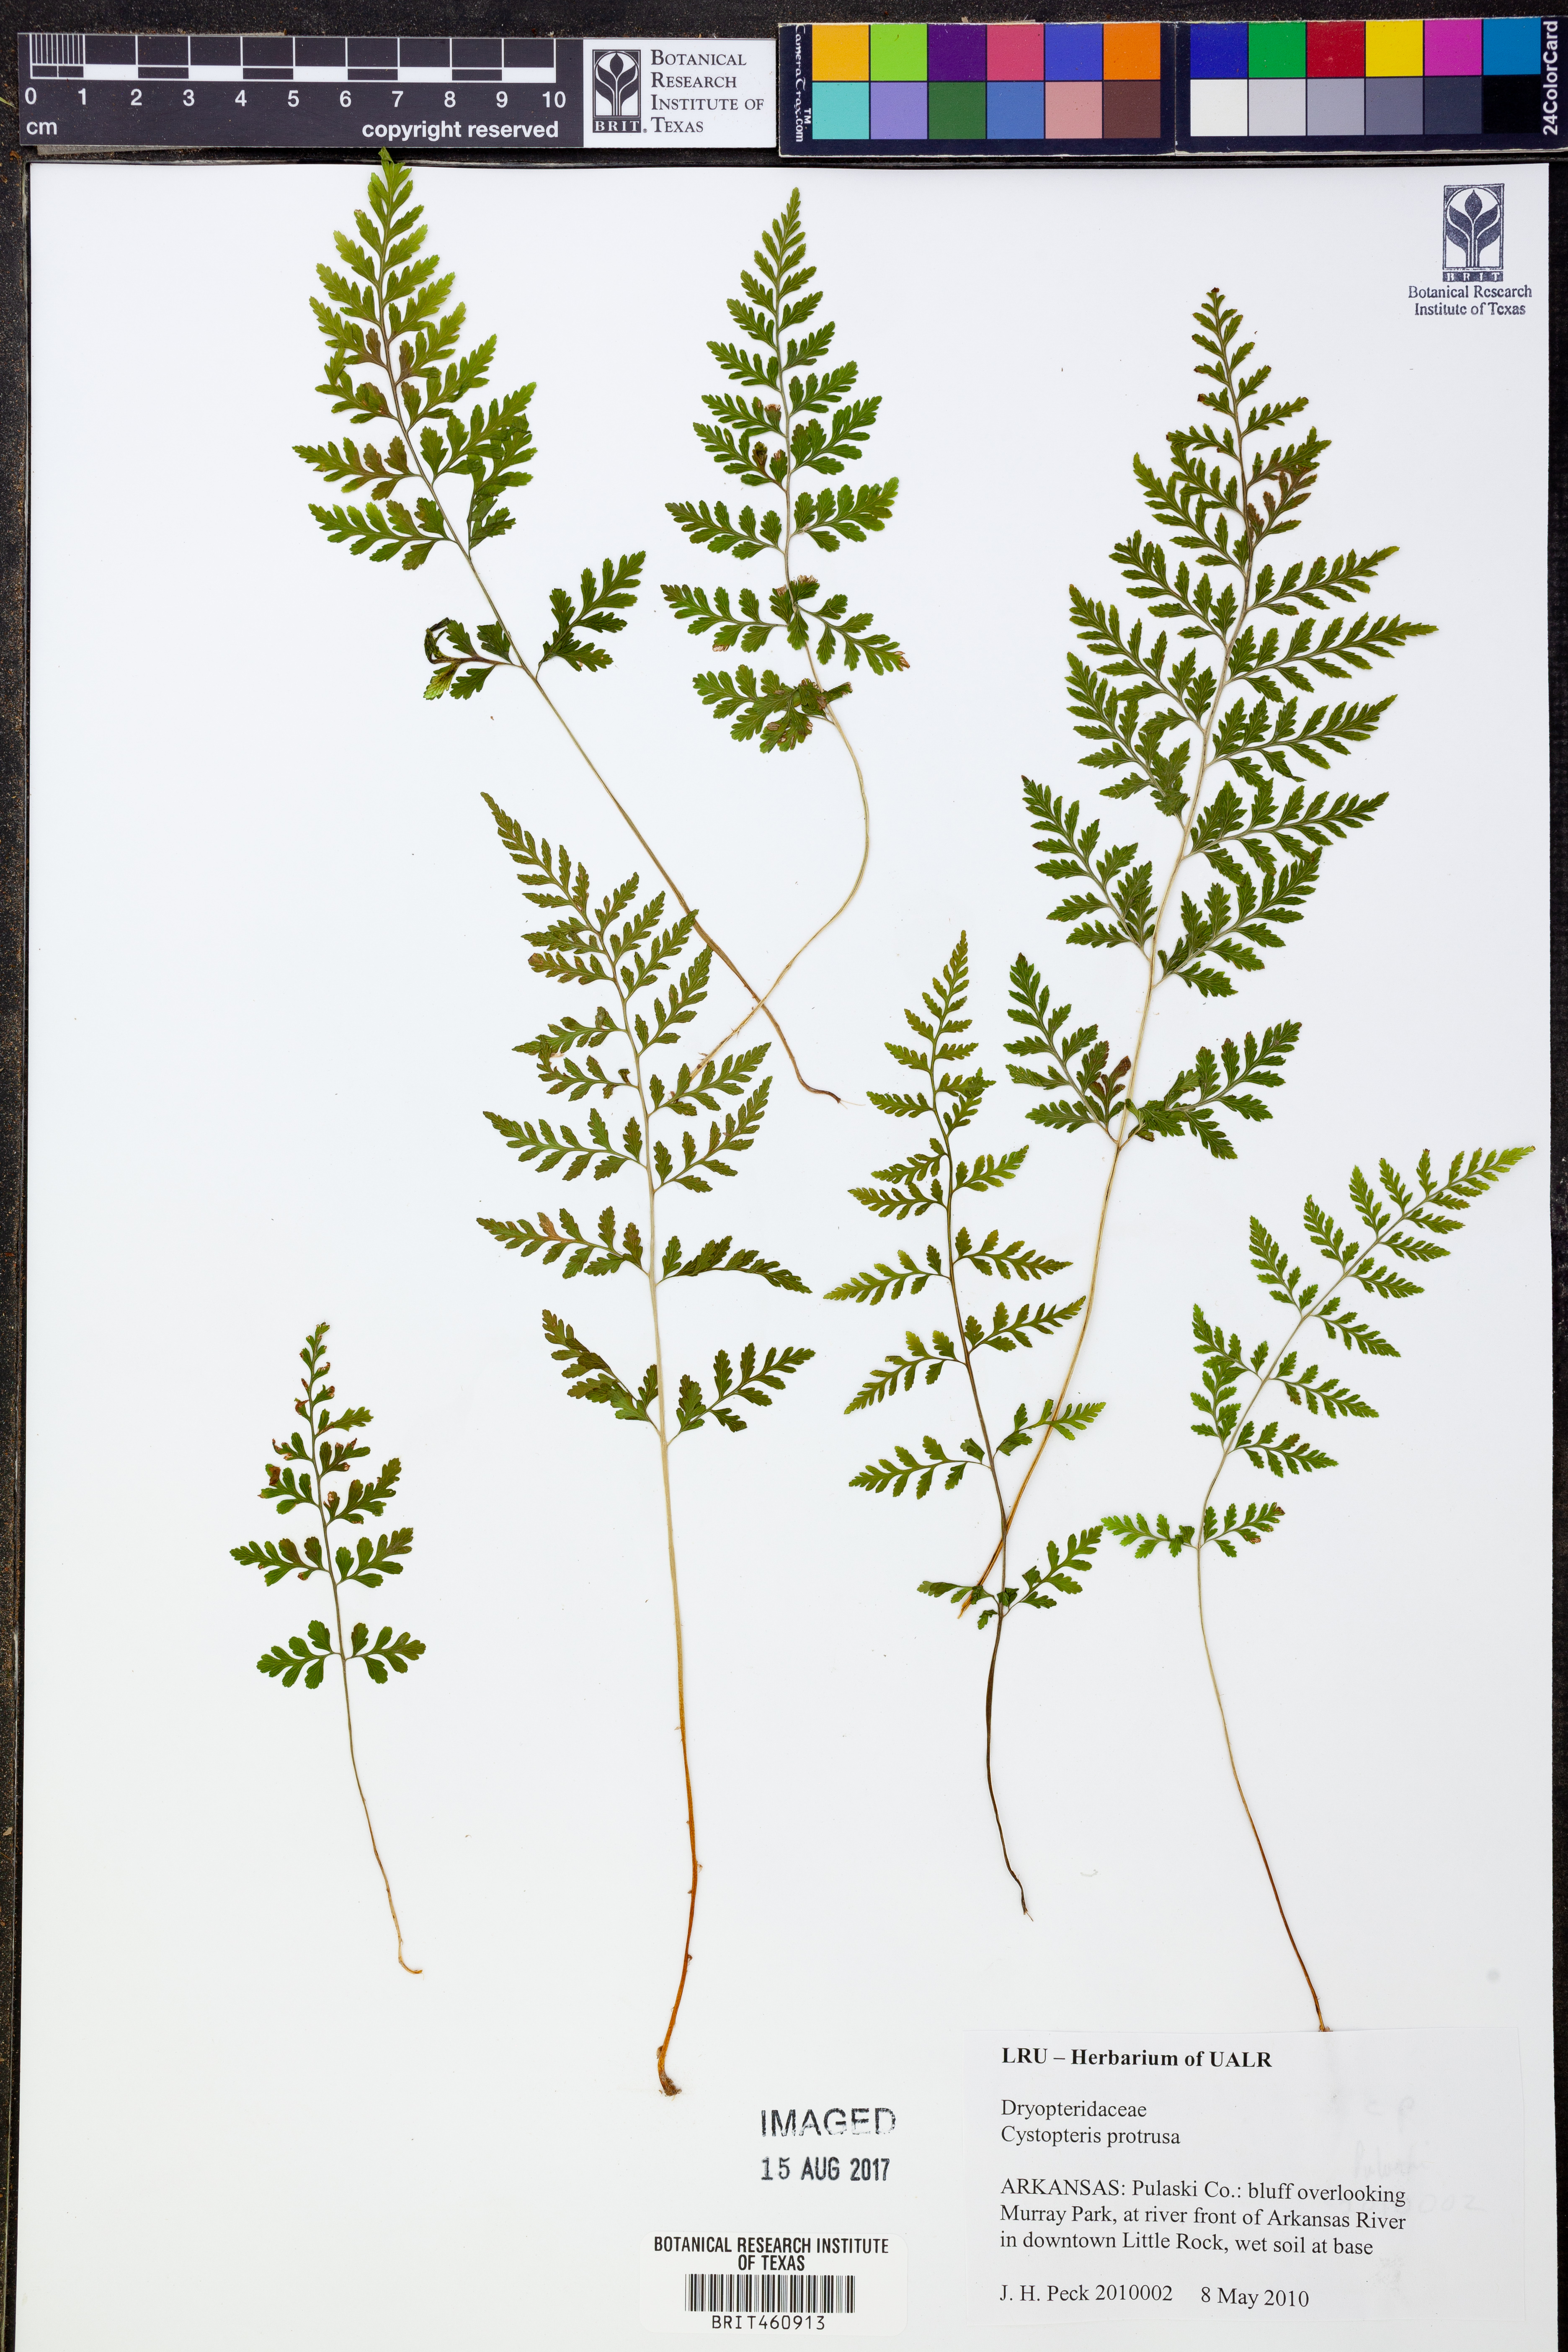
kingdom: Plantae
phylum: Tracheophyta
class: Polypodiopsida
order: Polypodiales
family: Cystopteridaceae
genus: Cystopteris
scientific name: Cystopteris protrusa
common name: Lowland brittle fern
